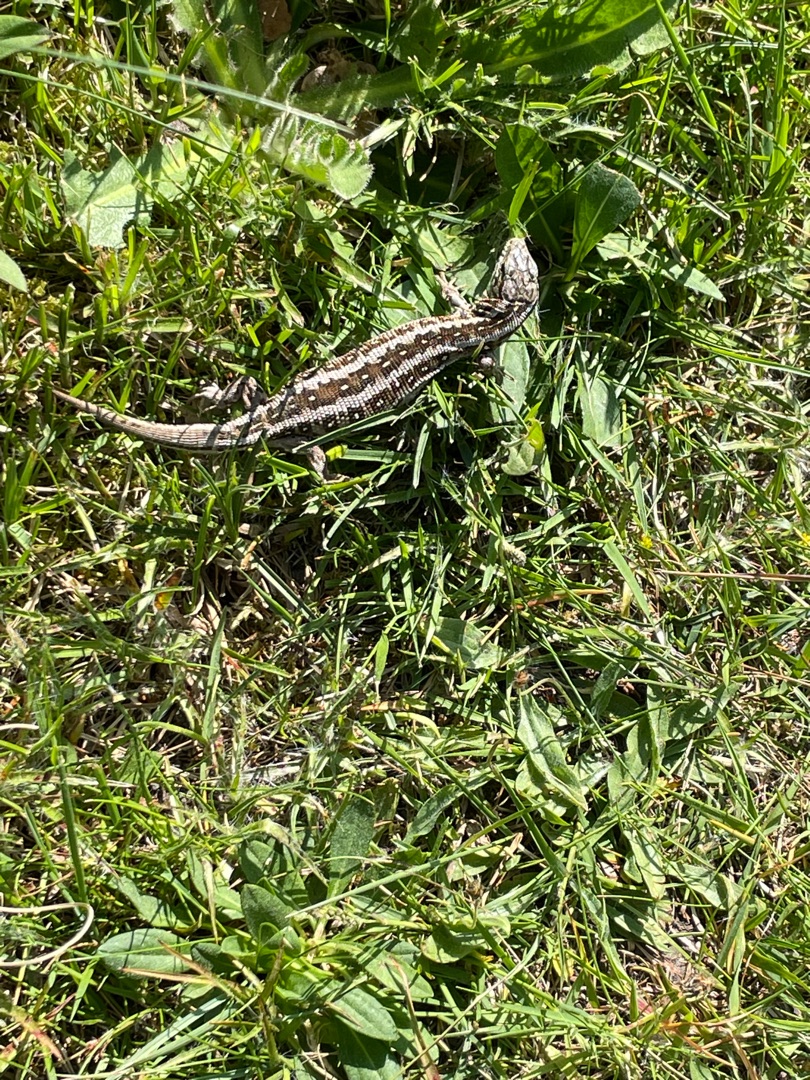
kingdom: Animalia
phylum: Chordata
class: Squamata
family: Lacertidae
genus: Lacerta
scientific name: Lacerta agilis
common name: Markfirben
